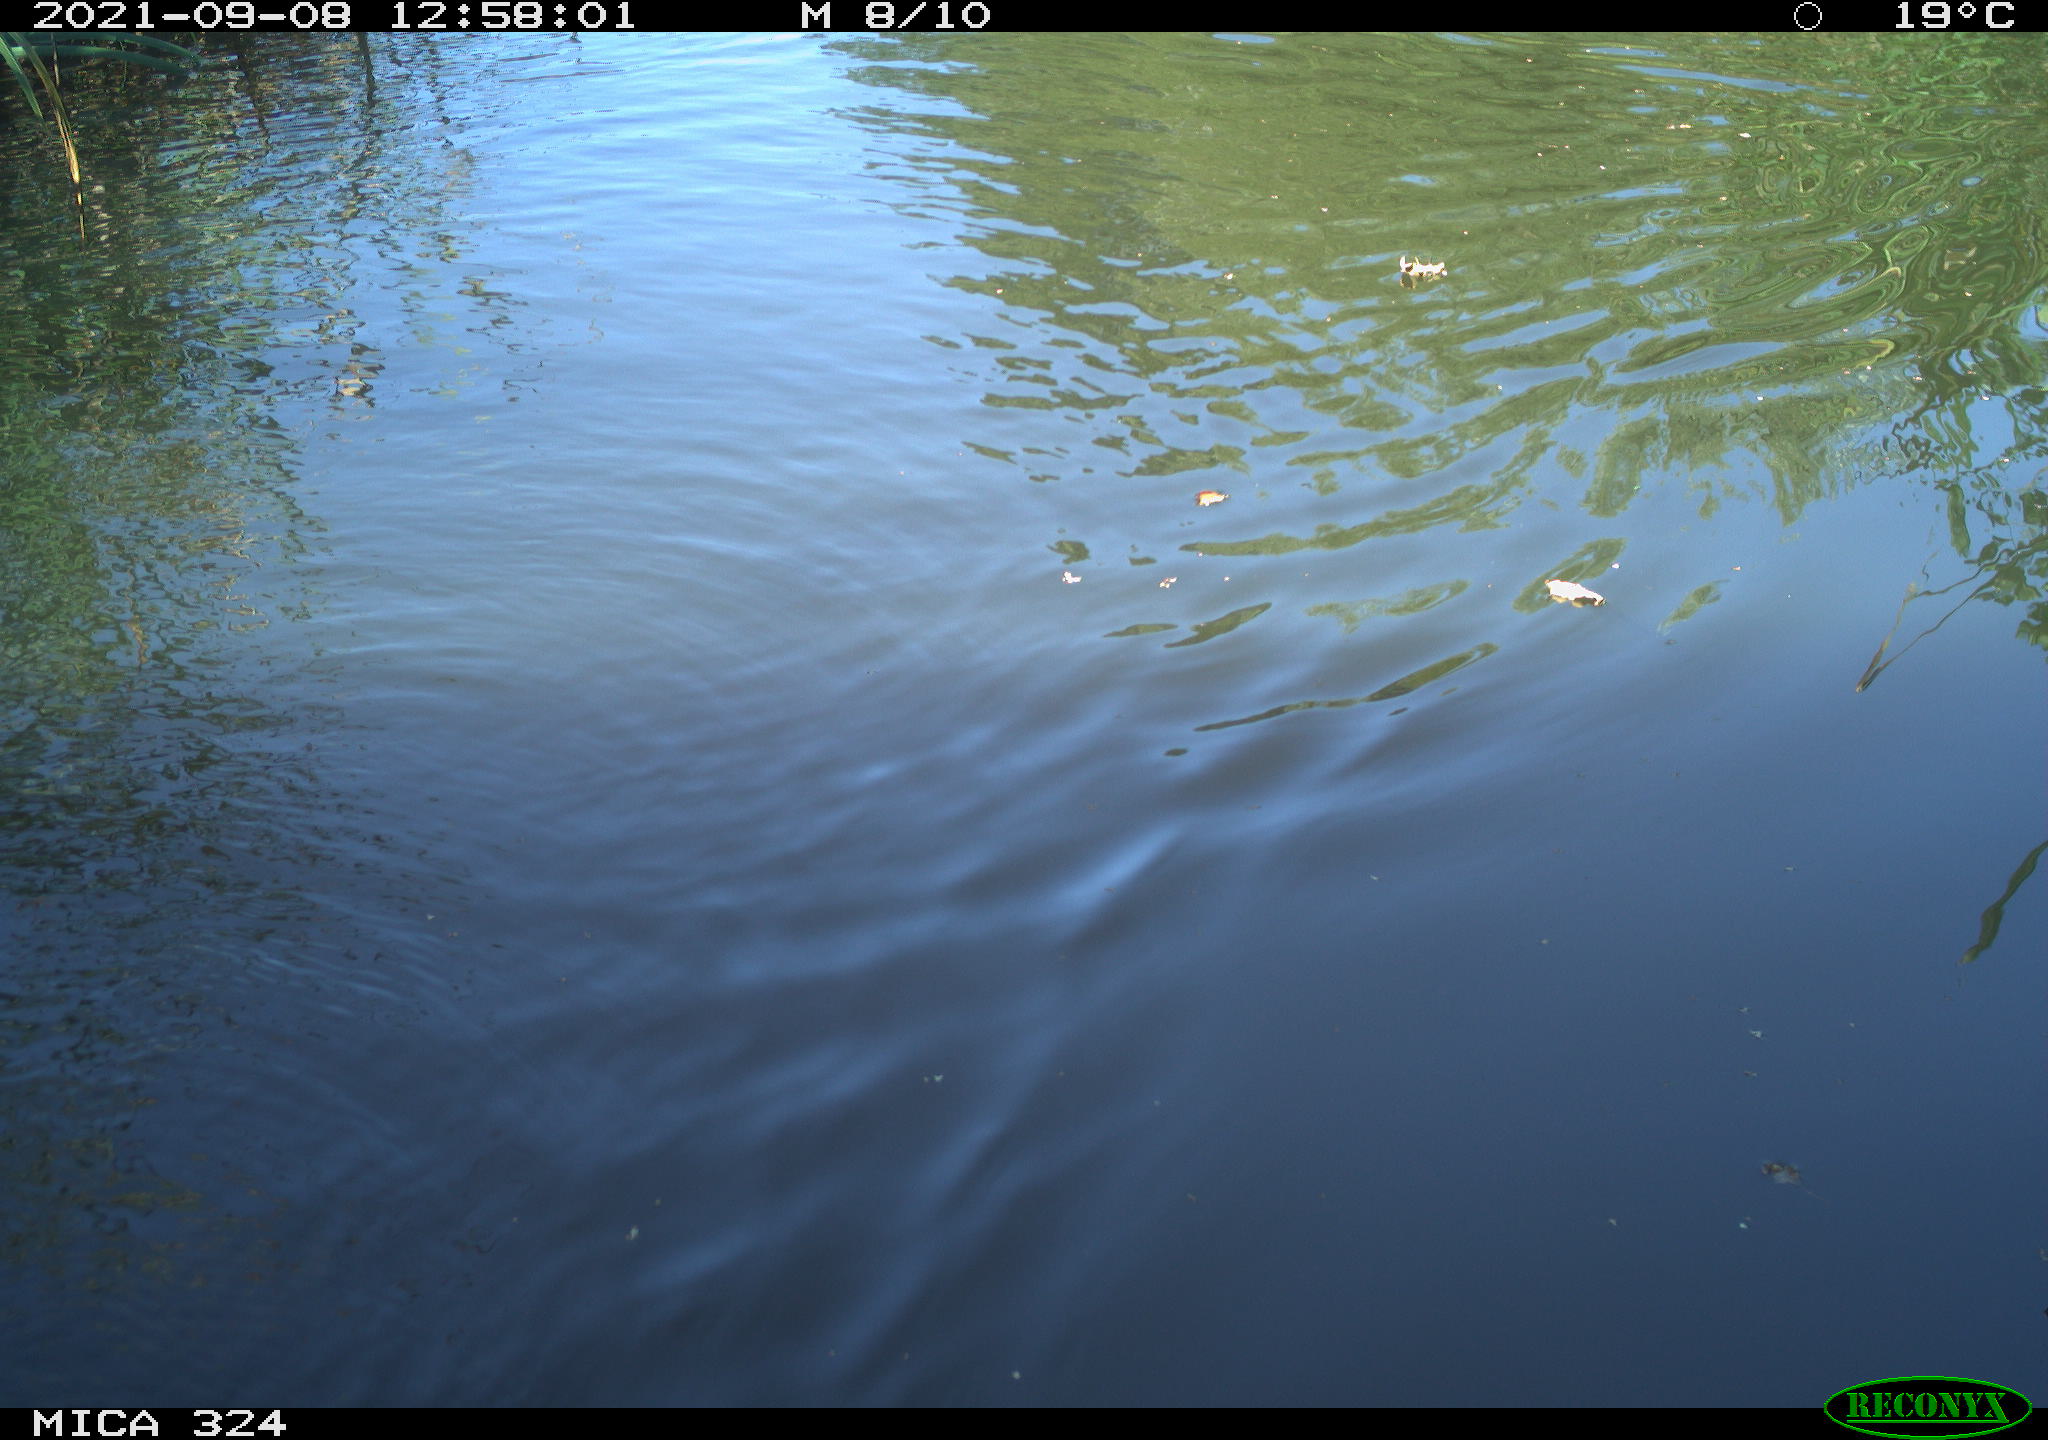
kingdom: Animalia
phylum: Chordata
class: Mammalia
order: Rodentia
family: Cricetidae
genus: Ondatra
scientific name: Ondatra zibethicus
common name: Muskrat
